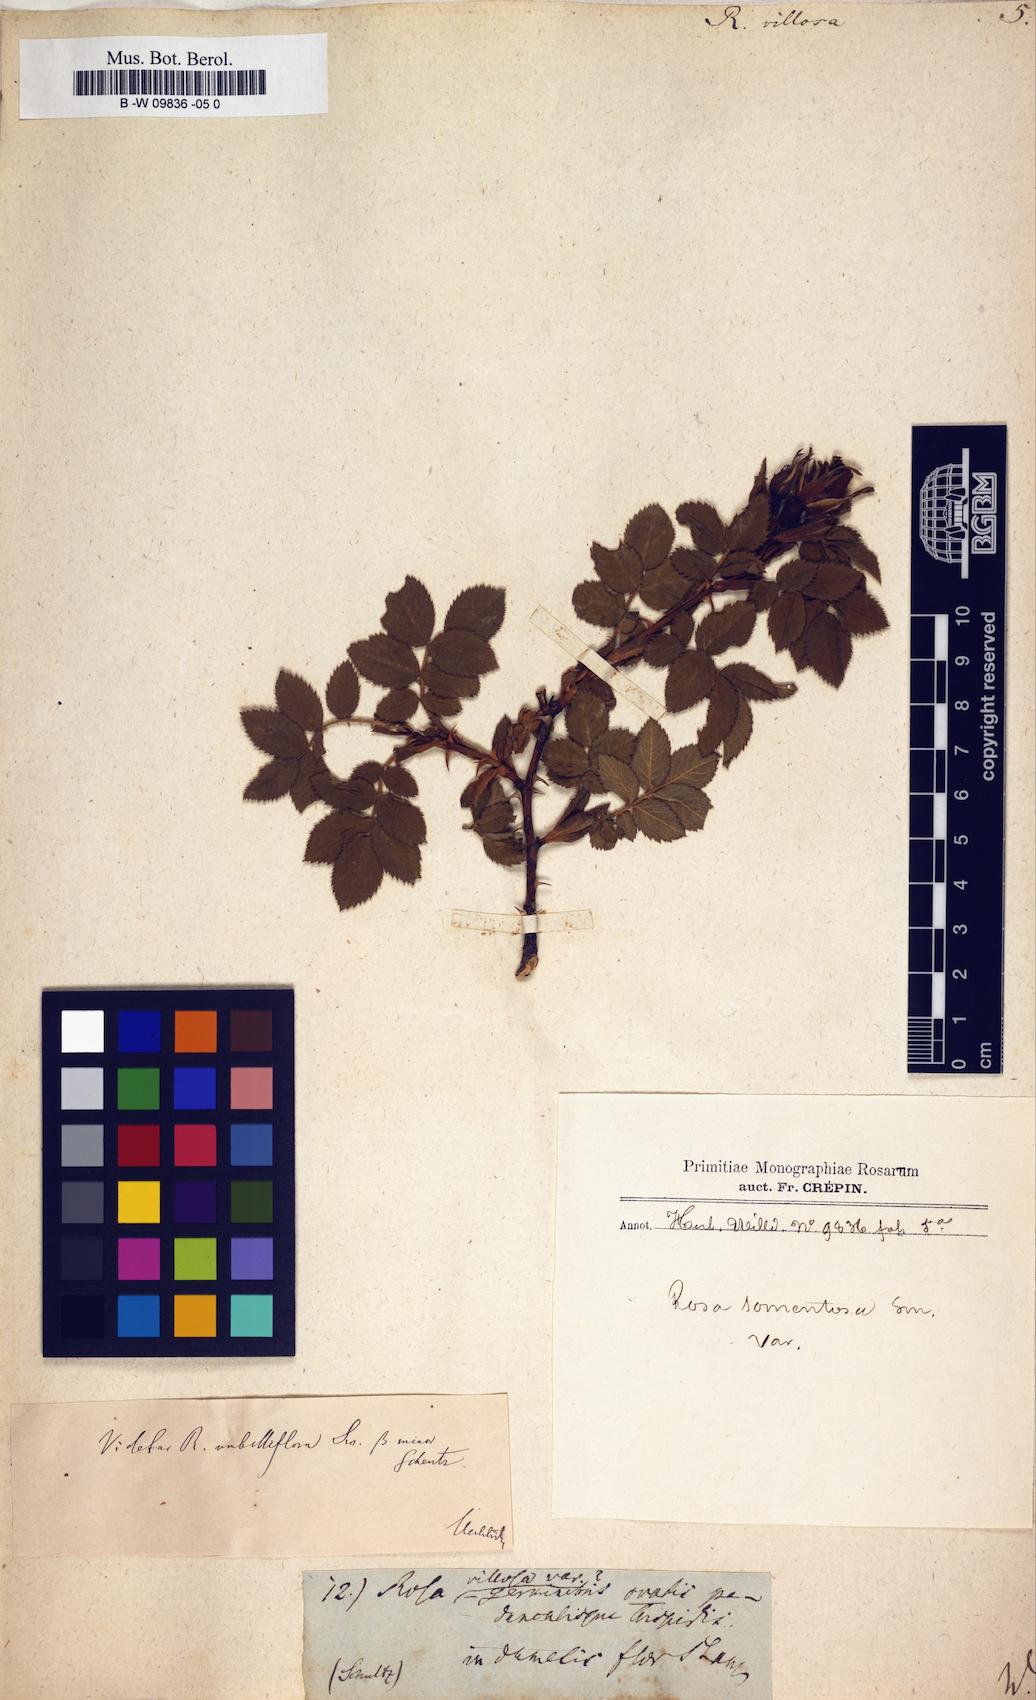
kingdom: Plantae
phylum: Tracheophyta
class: Magnoliopsida
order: Rosales
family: Rosaceae
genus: Rosa
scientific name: Rosa villosa
